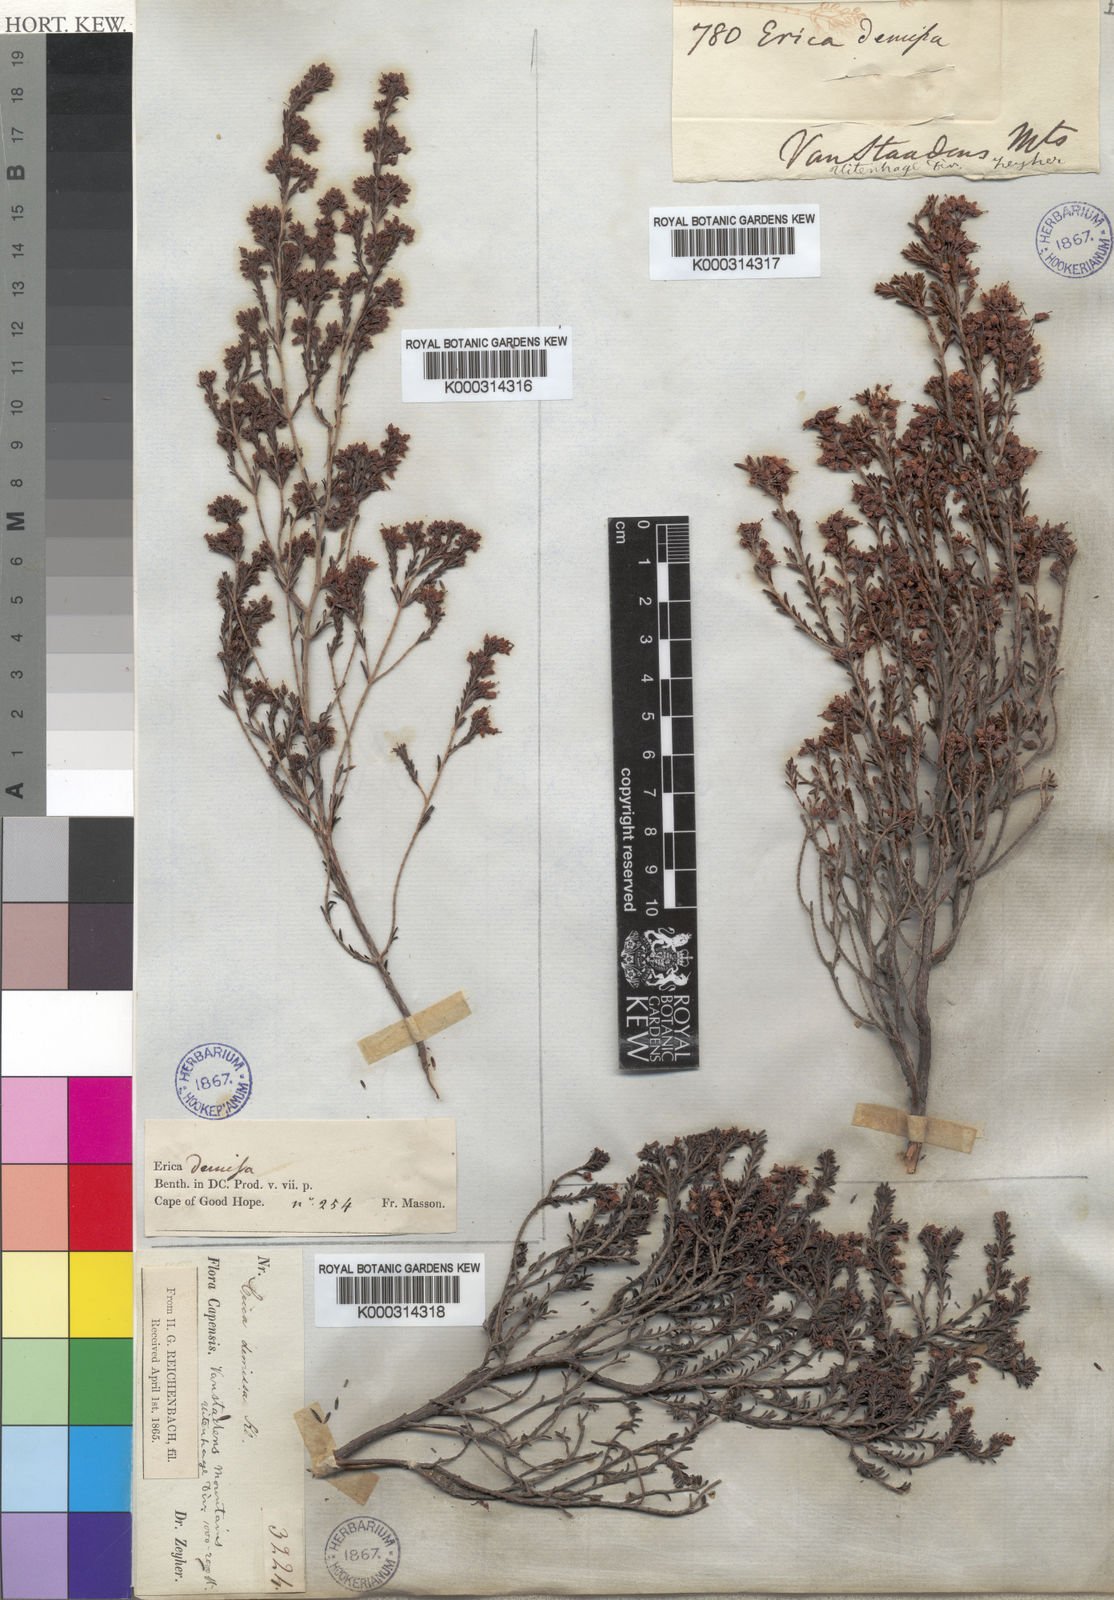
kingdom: Plantae
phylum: Tracheophyta
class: Magnoliopsida
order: Ericales
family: Ericaceae
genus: Erica
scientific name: Erica demissa
